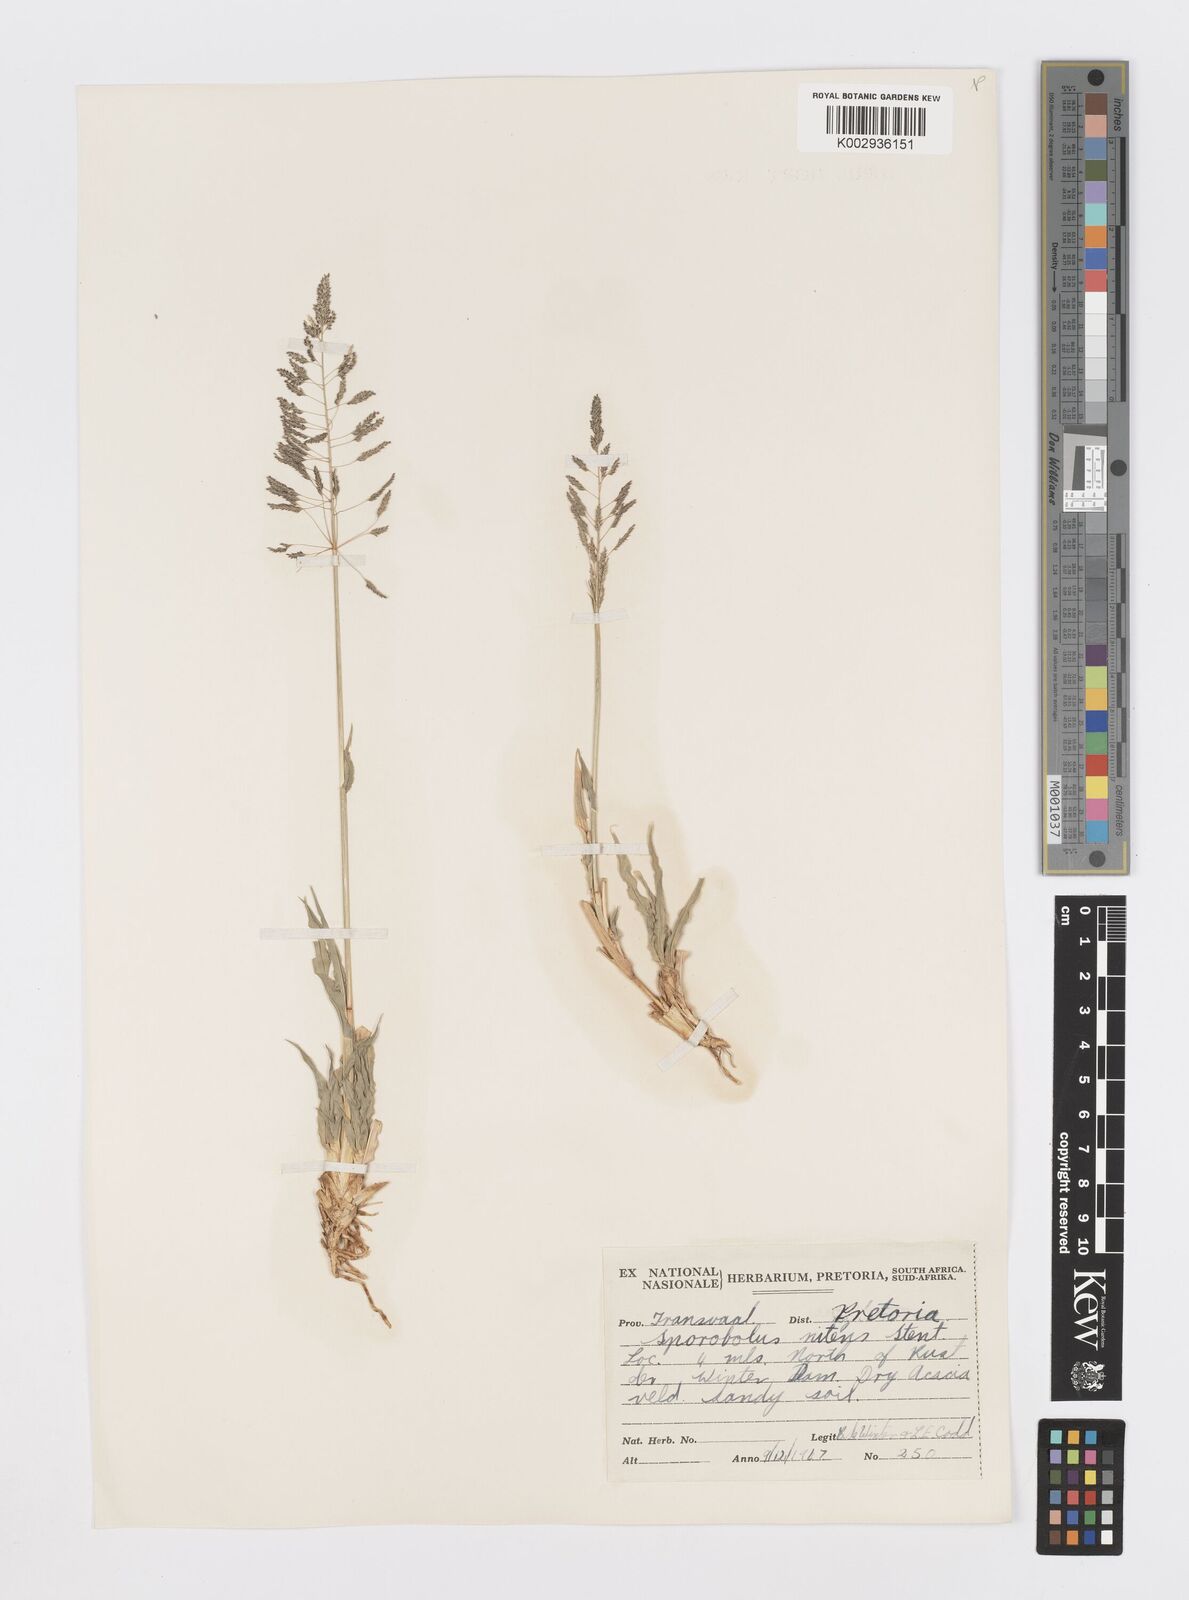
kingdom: Plantae
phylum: Tracheophyta
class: Liliopsida
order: Poales
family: Poaceae
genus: Sporobolus
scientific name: Sporobolus nitens
